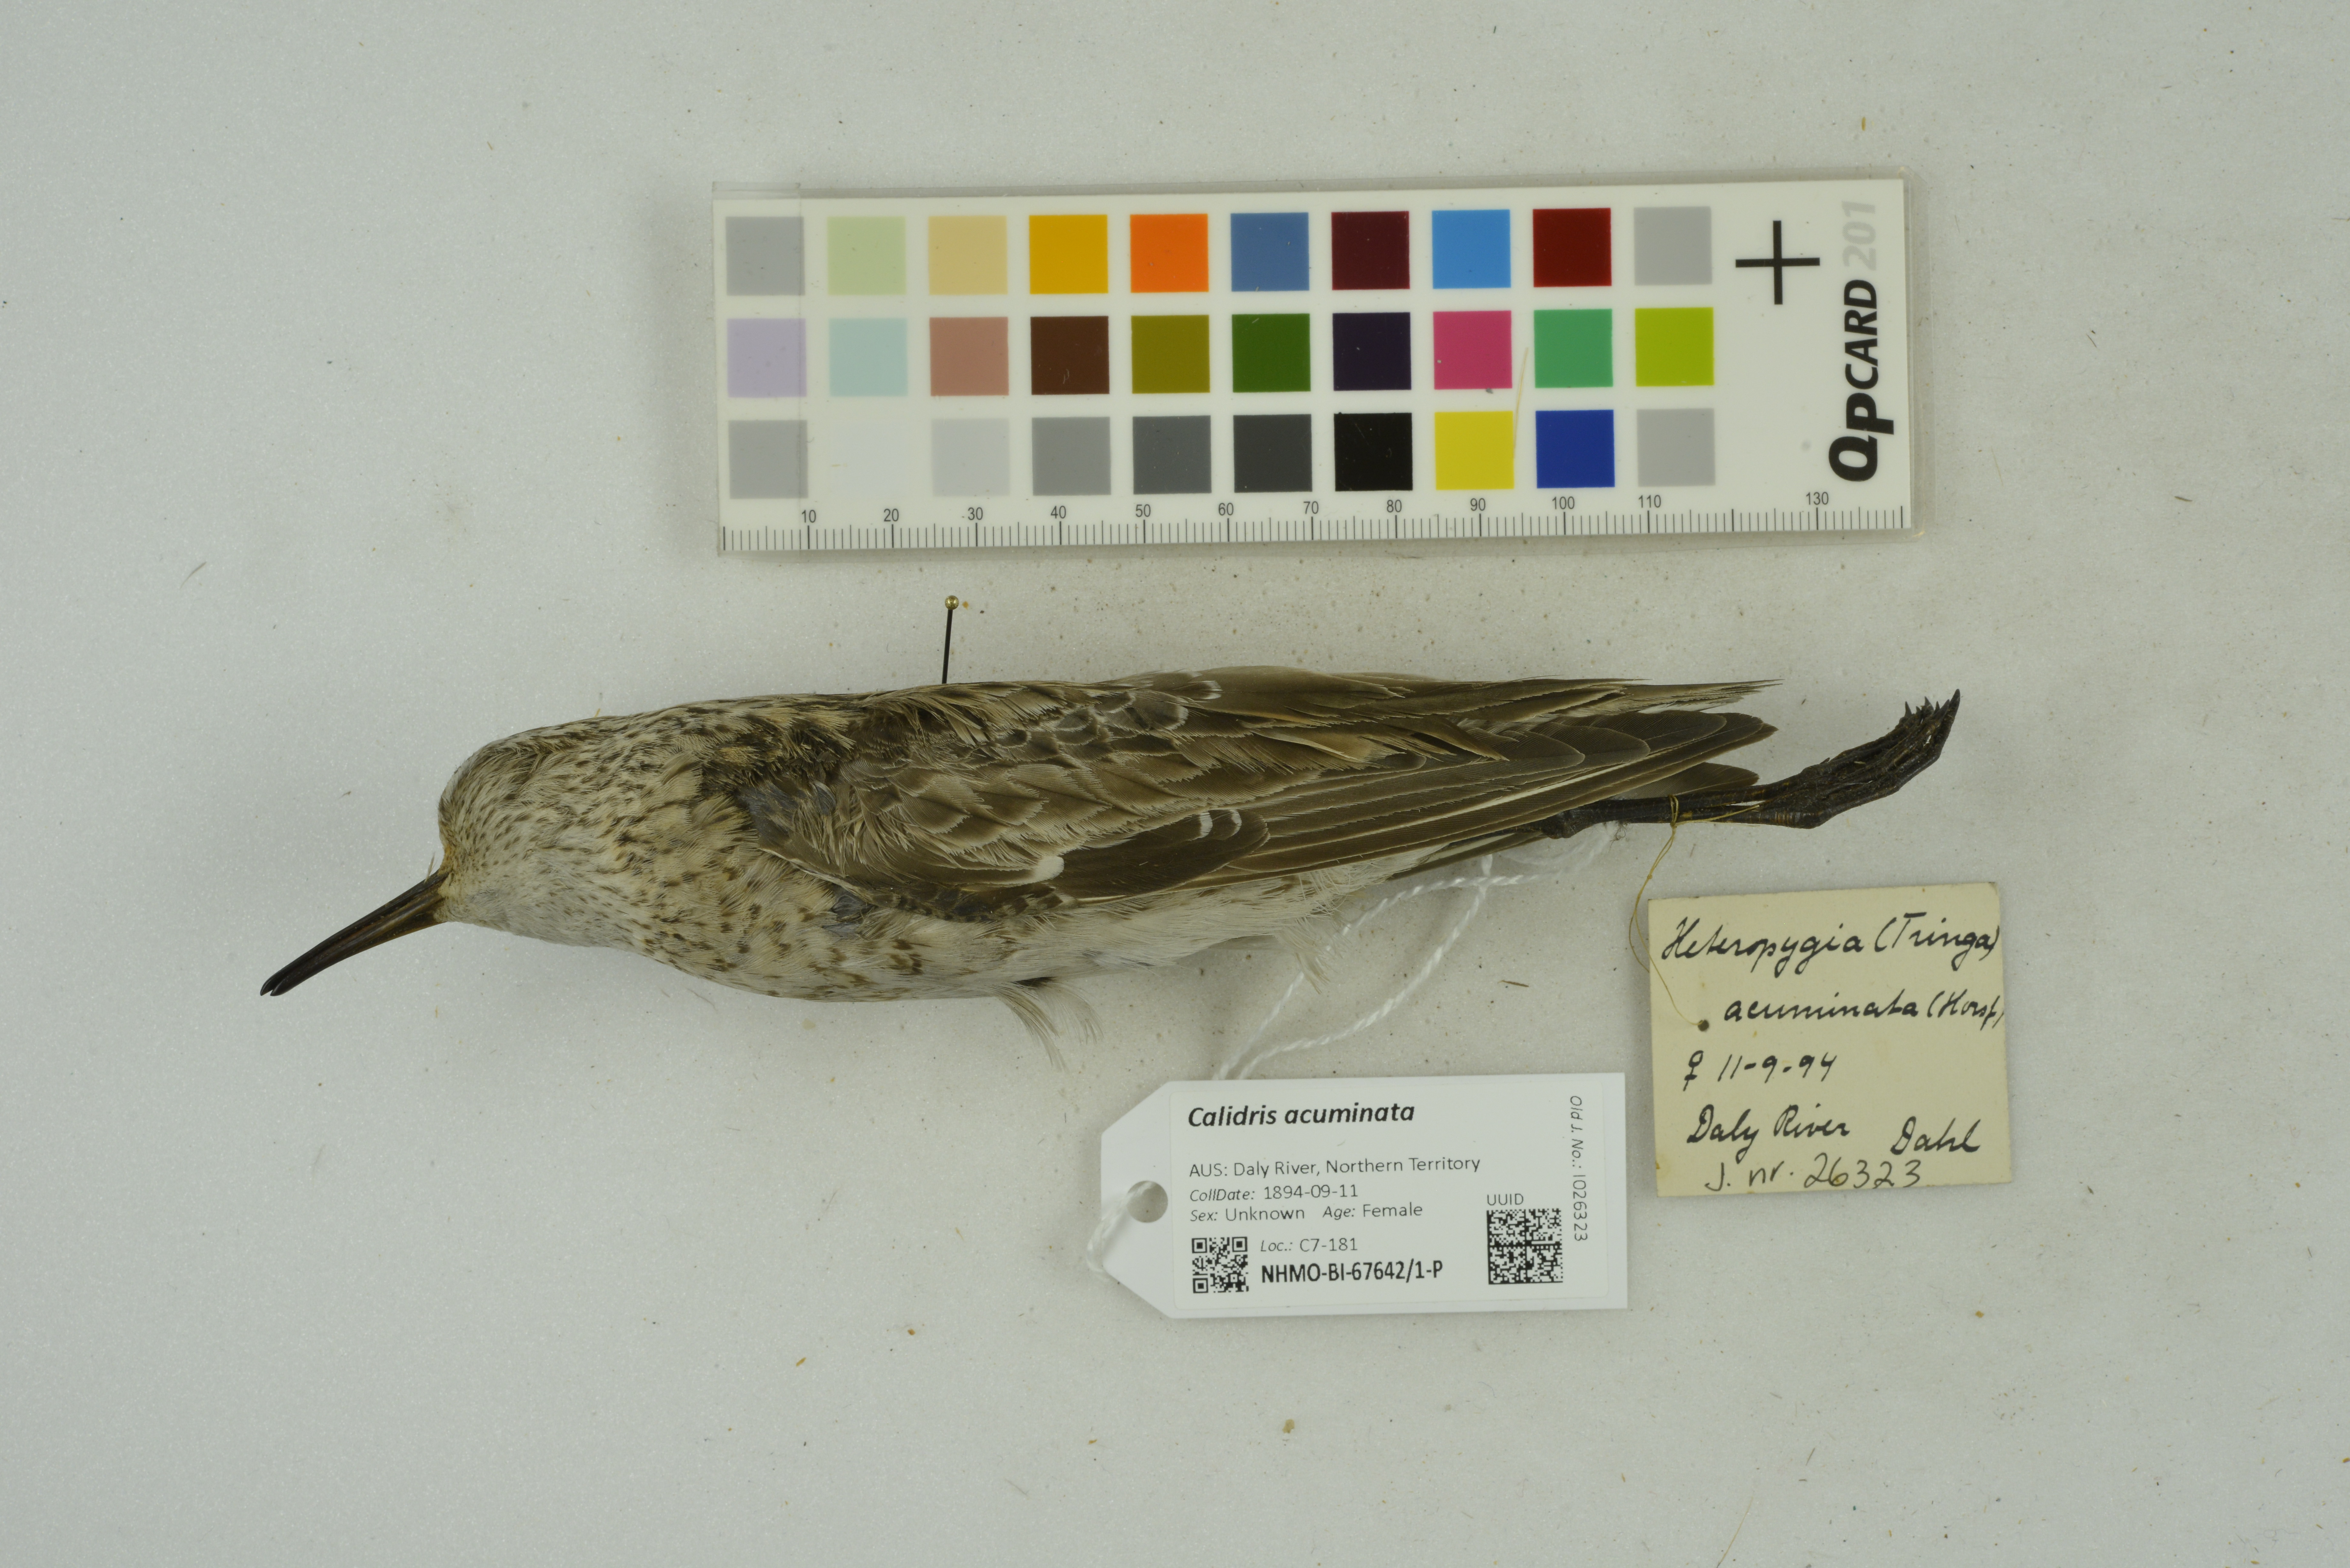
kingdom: Animalia
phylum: Chordata
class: Aves
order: Charadriiformes
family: Scolopacidae
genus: Calidris
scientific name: Calidris acuminata
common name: Sharp-tailed sandpiper
